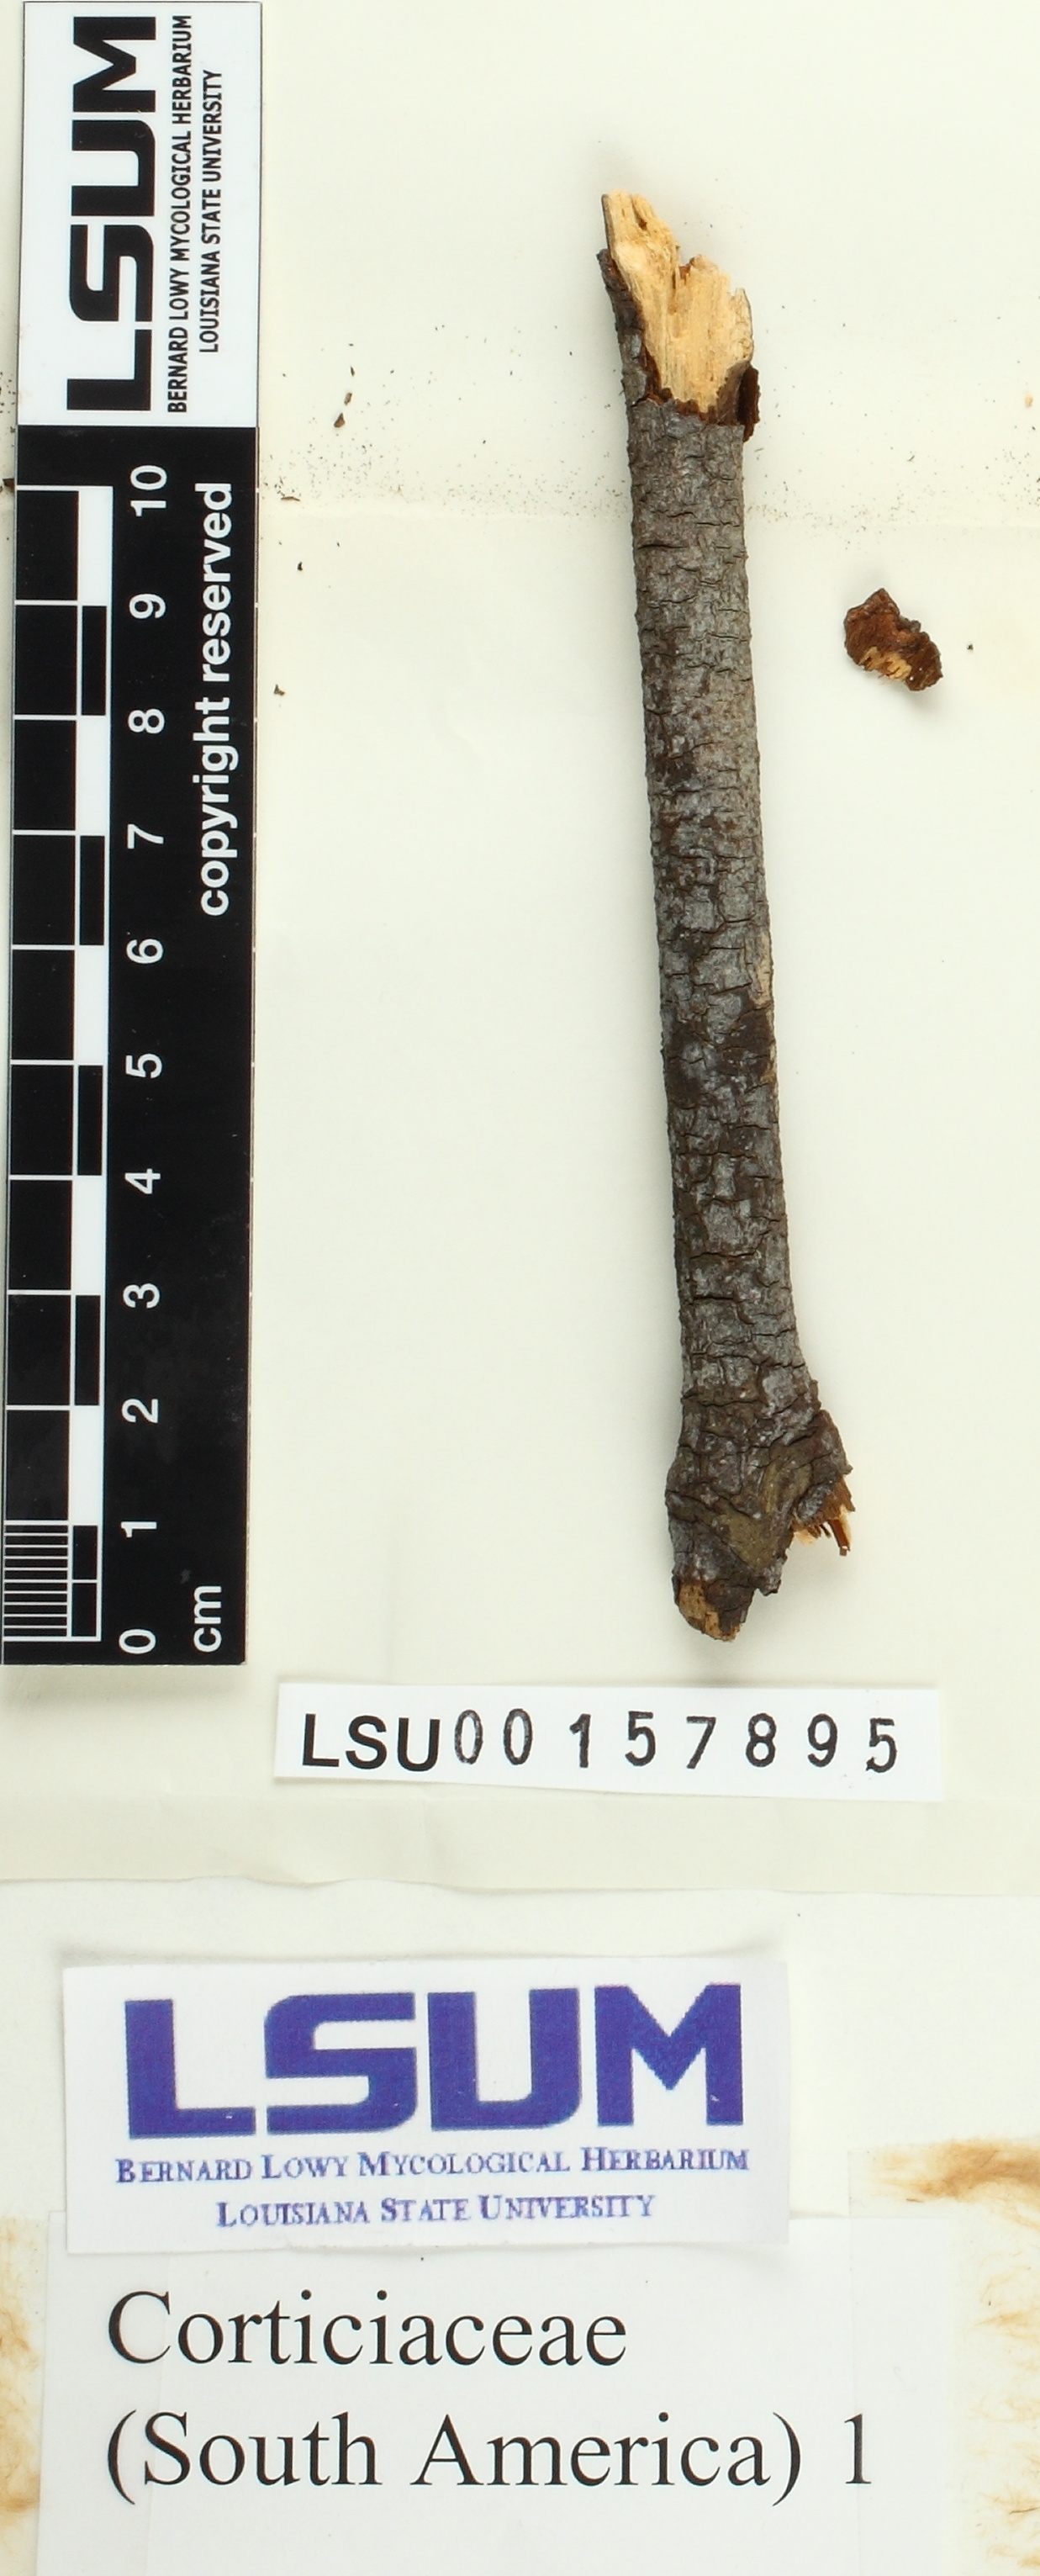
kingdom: Fungi
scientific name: Fungi
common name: Fungi
